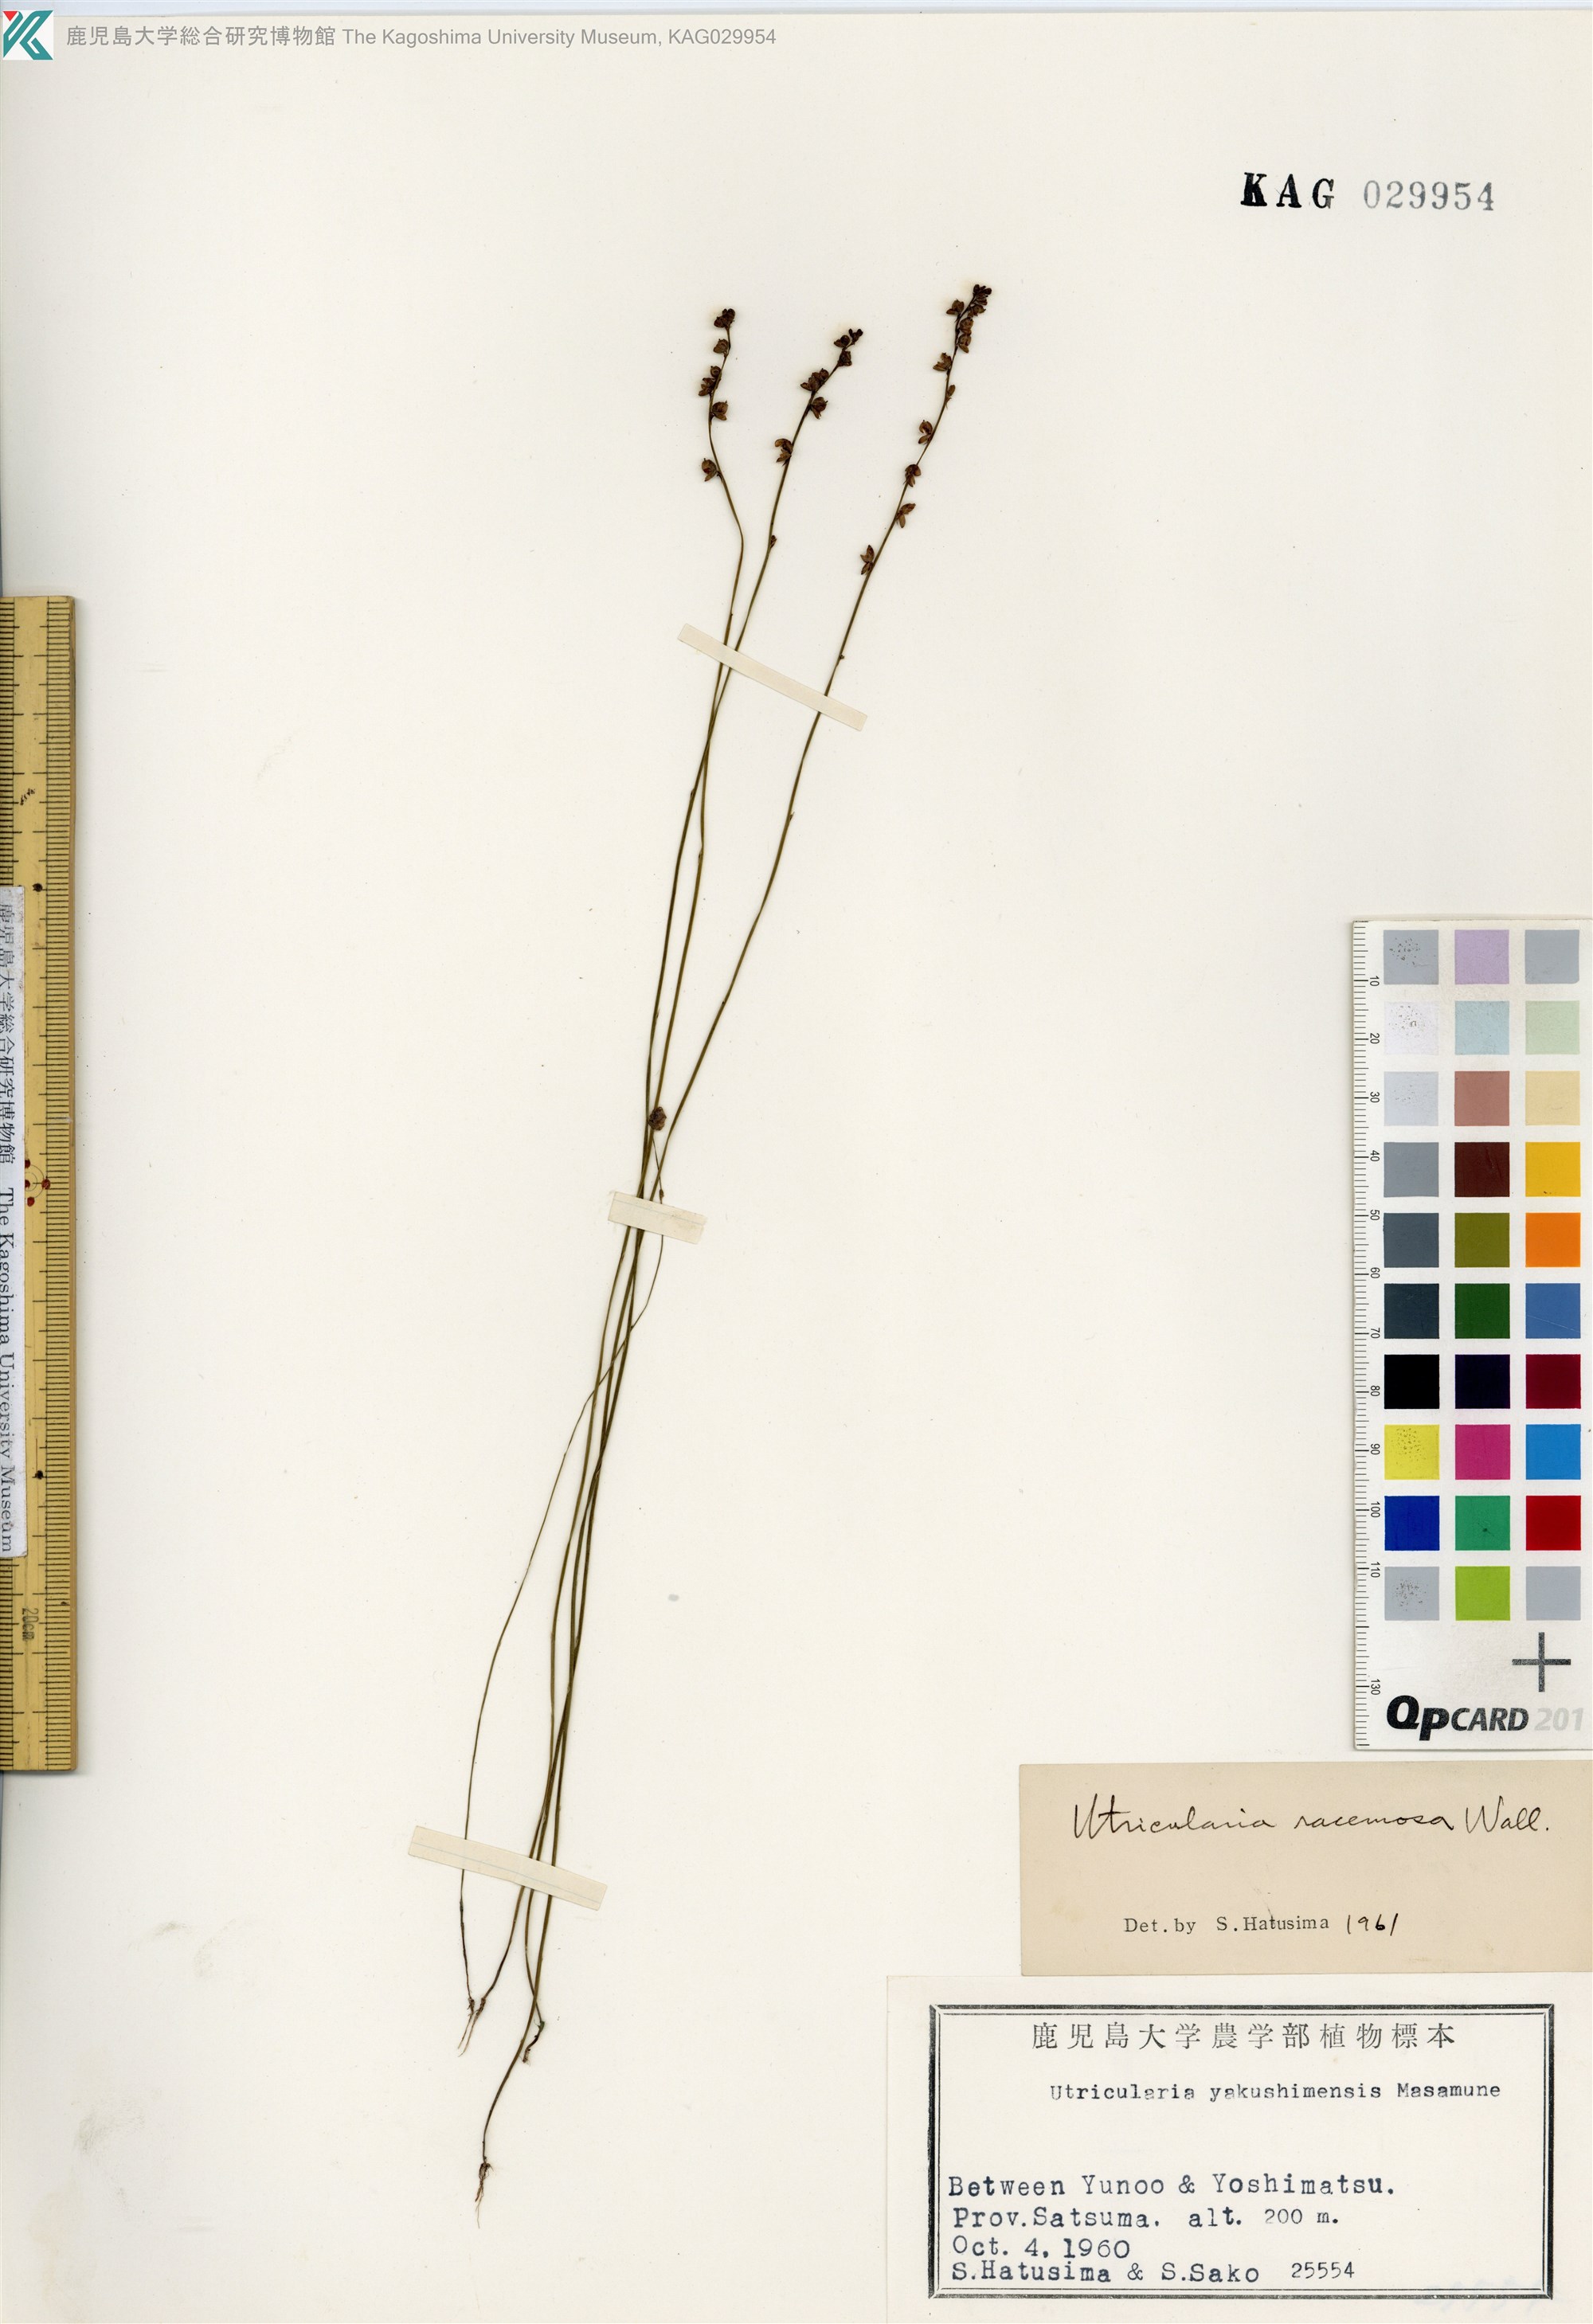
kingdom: Plantae
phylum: Tracheophyta
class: Magnoliopsida
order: Lamiales
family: Lentibulariaceae
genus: Utricularia
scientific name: Utricularia caerulea
